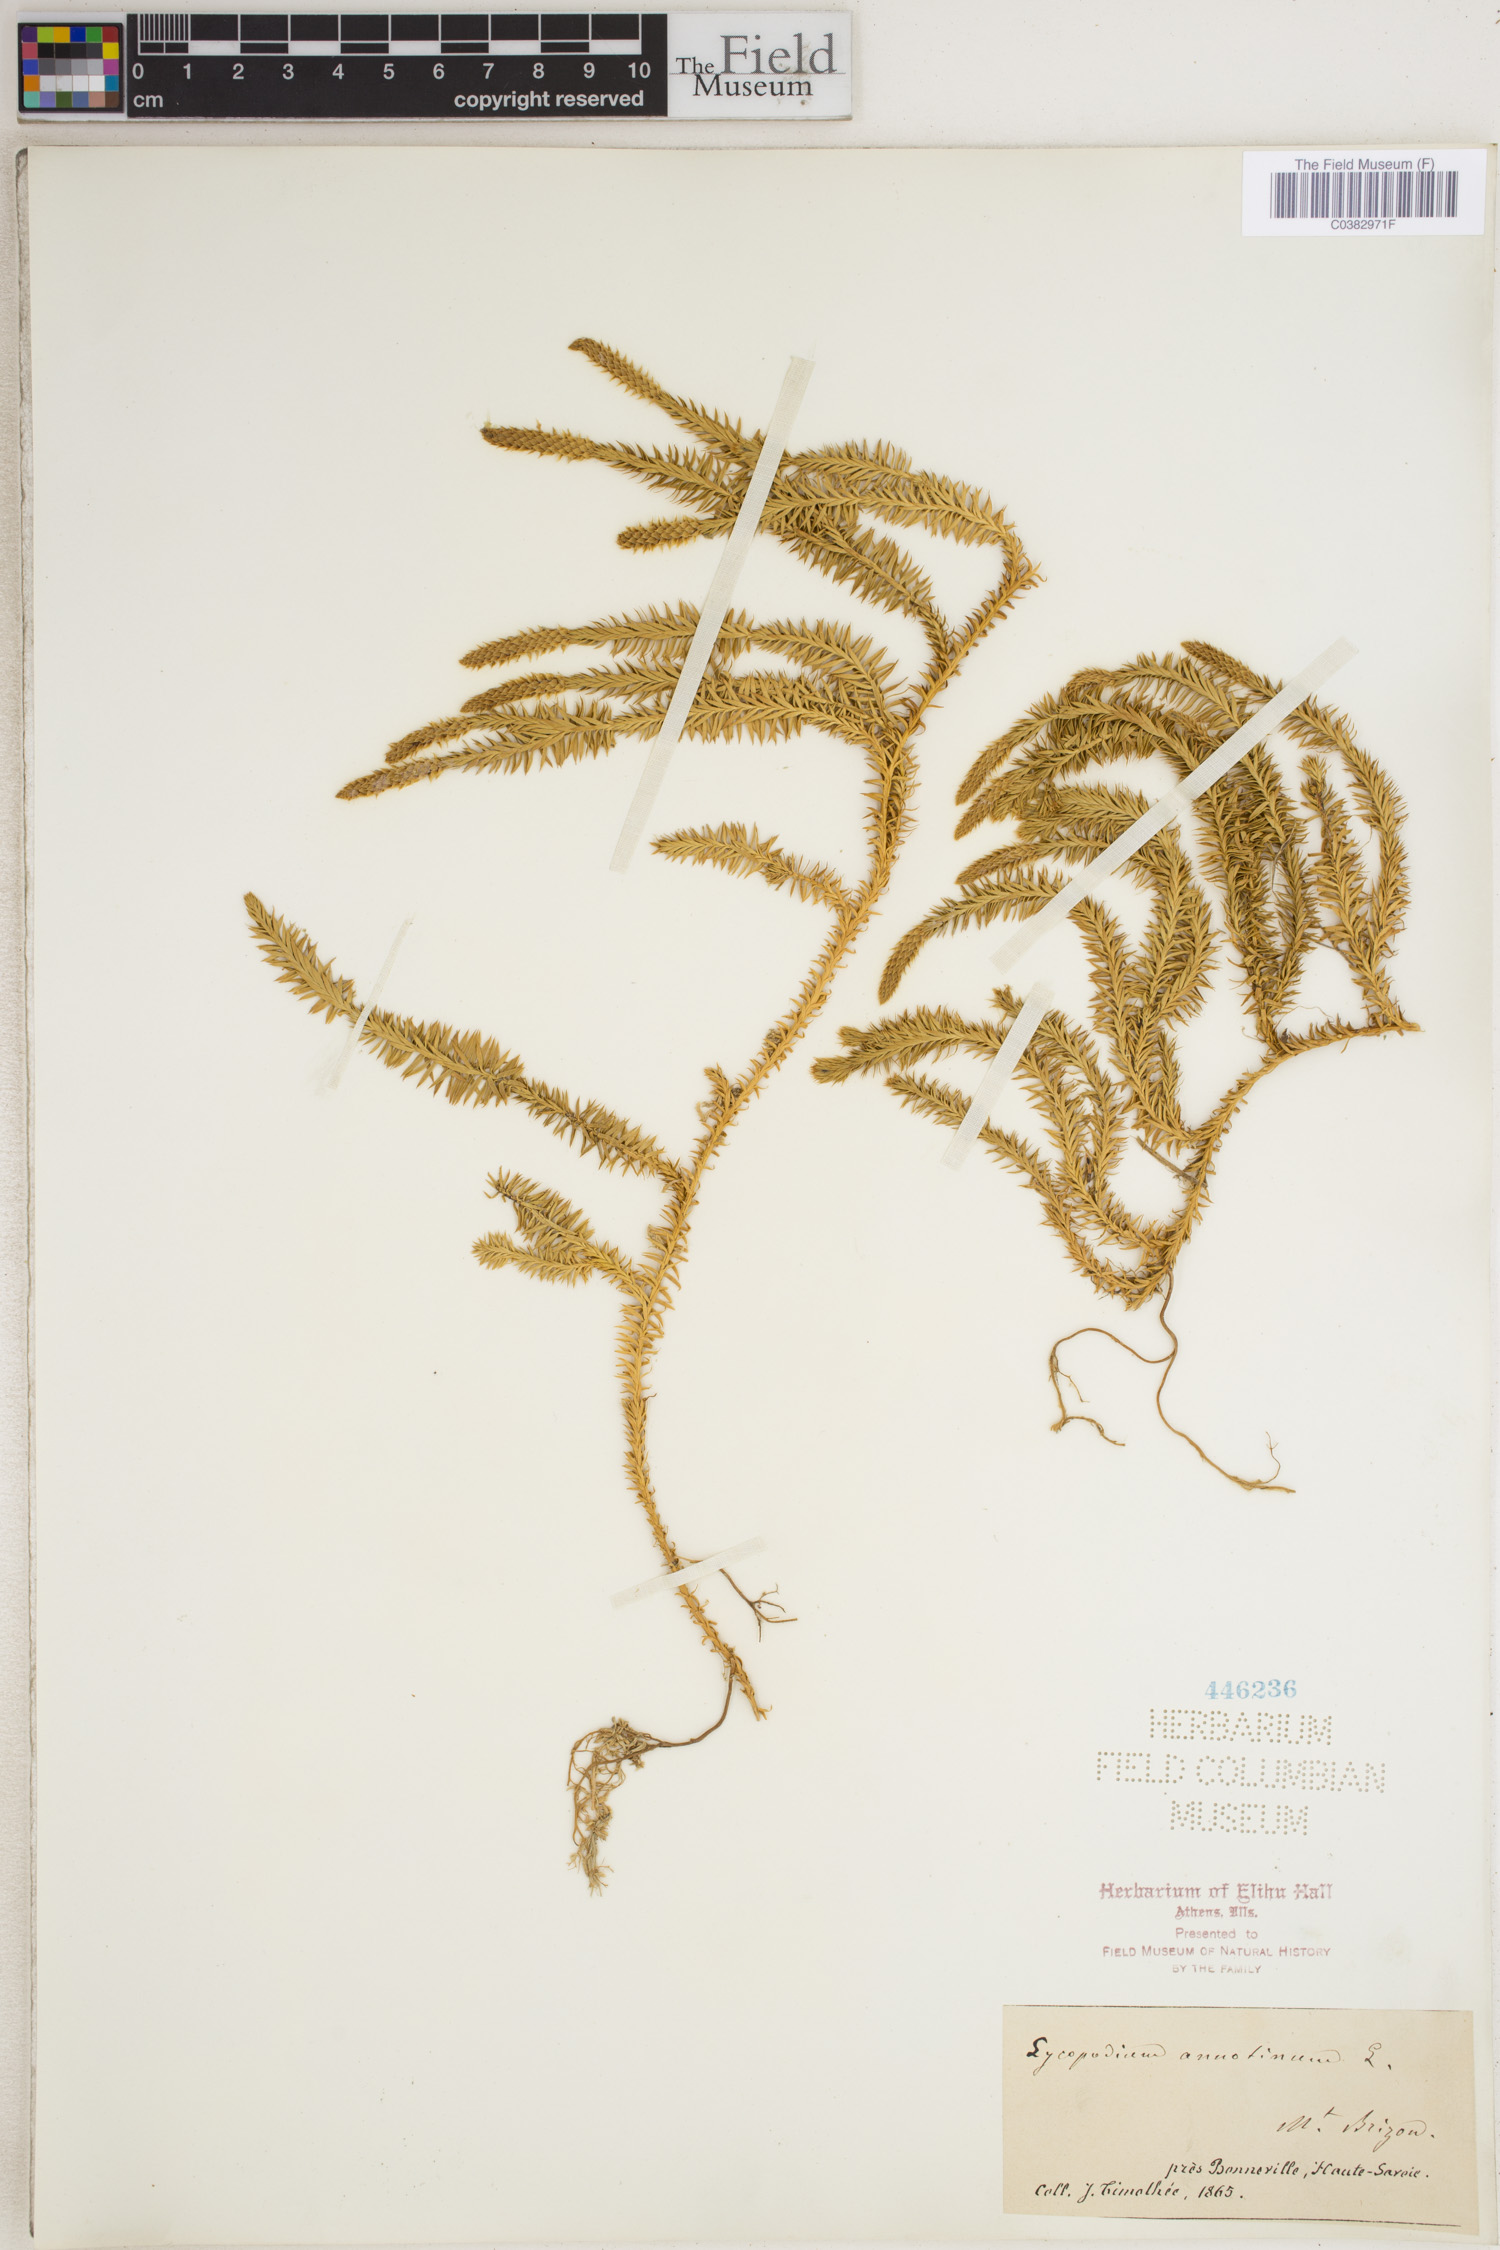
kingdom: Plantae
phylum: Tracheophyta
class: Lycopodiopsida
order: Lycopodiales
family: Lycopodiaceae
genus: Spinulum
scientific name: Spinulum annotinum
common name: Interrupted club-moss
